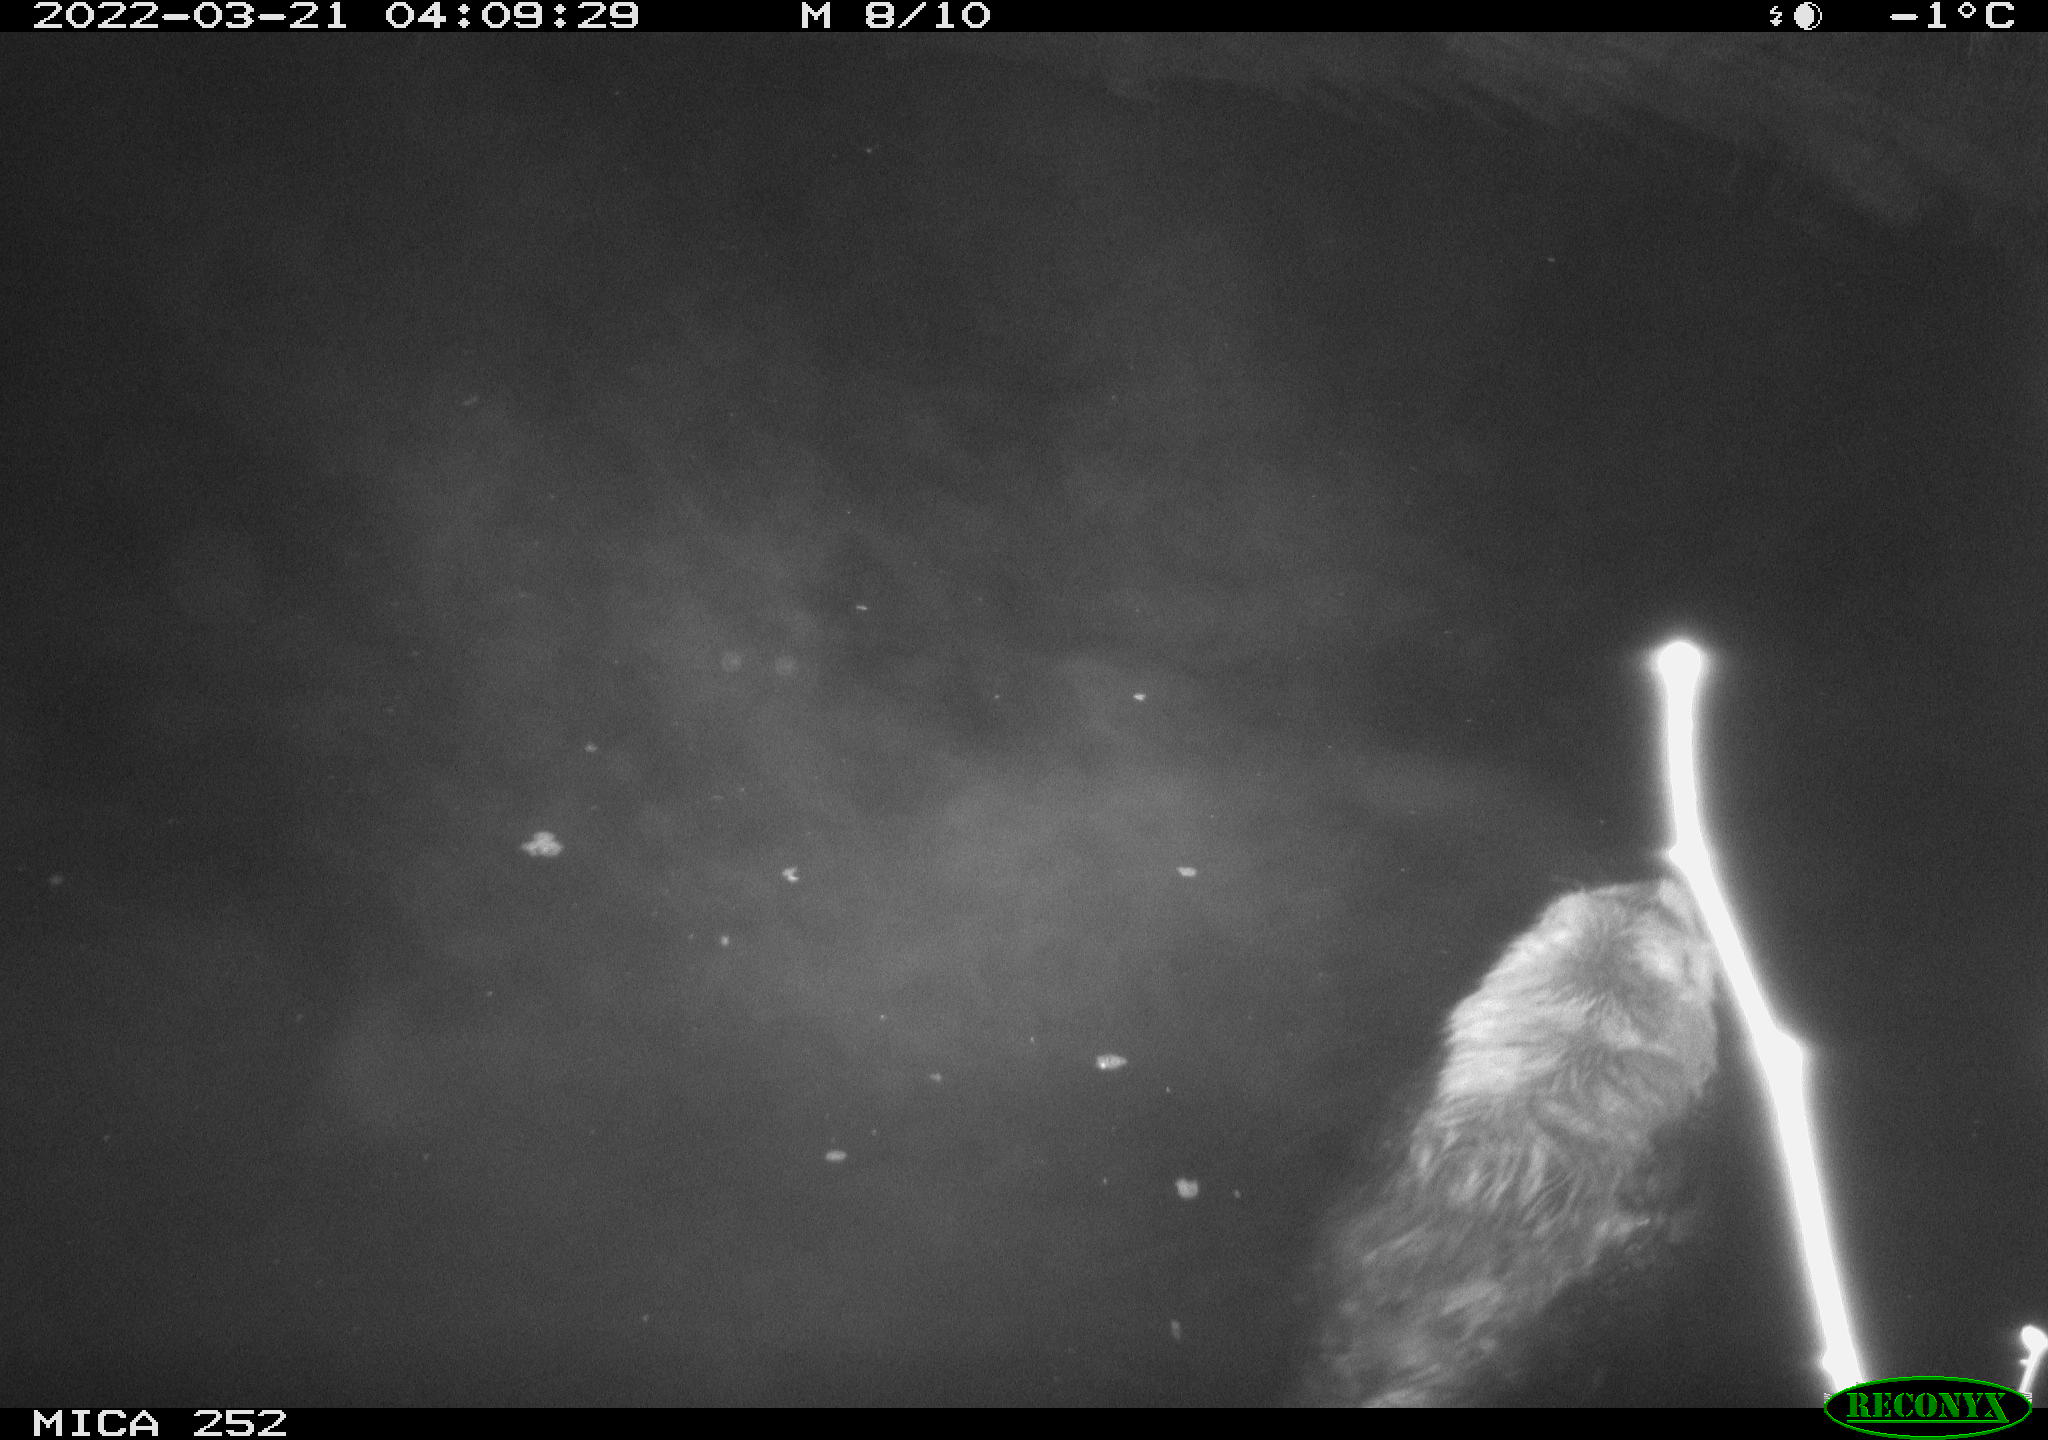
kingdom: Animalia
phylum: Chordata
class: Mammalia
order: Rodentia
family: Castoridae
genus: Castor
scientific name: Castor fiber
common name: Eurasian beaver
